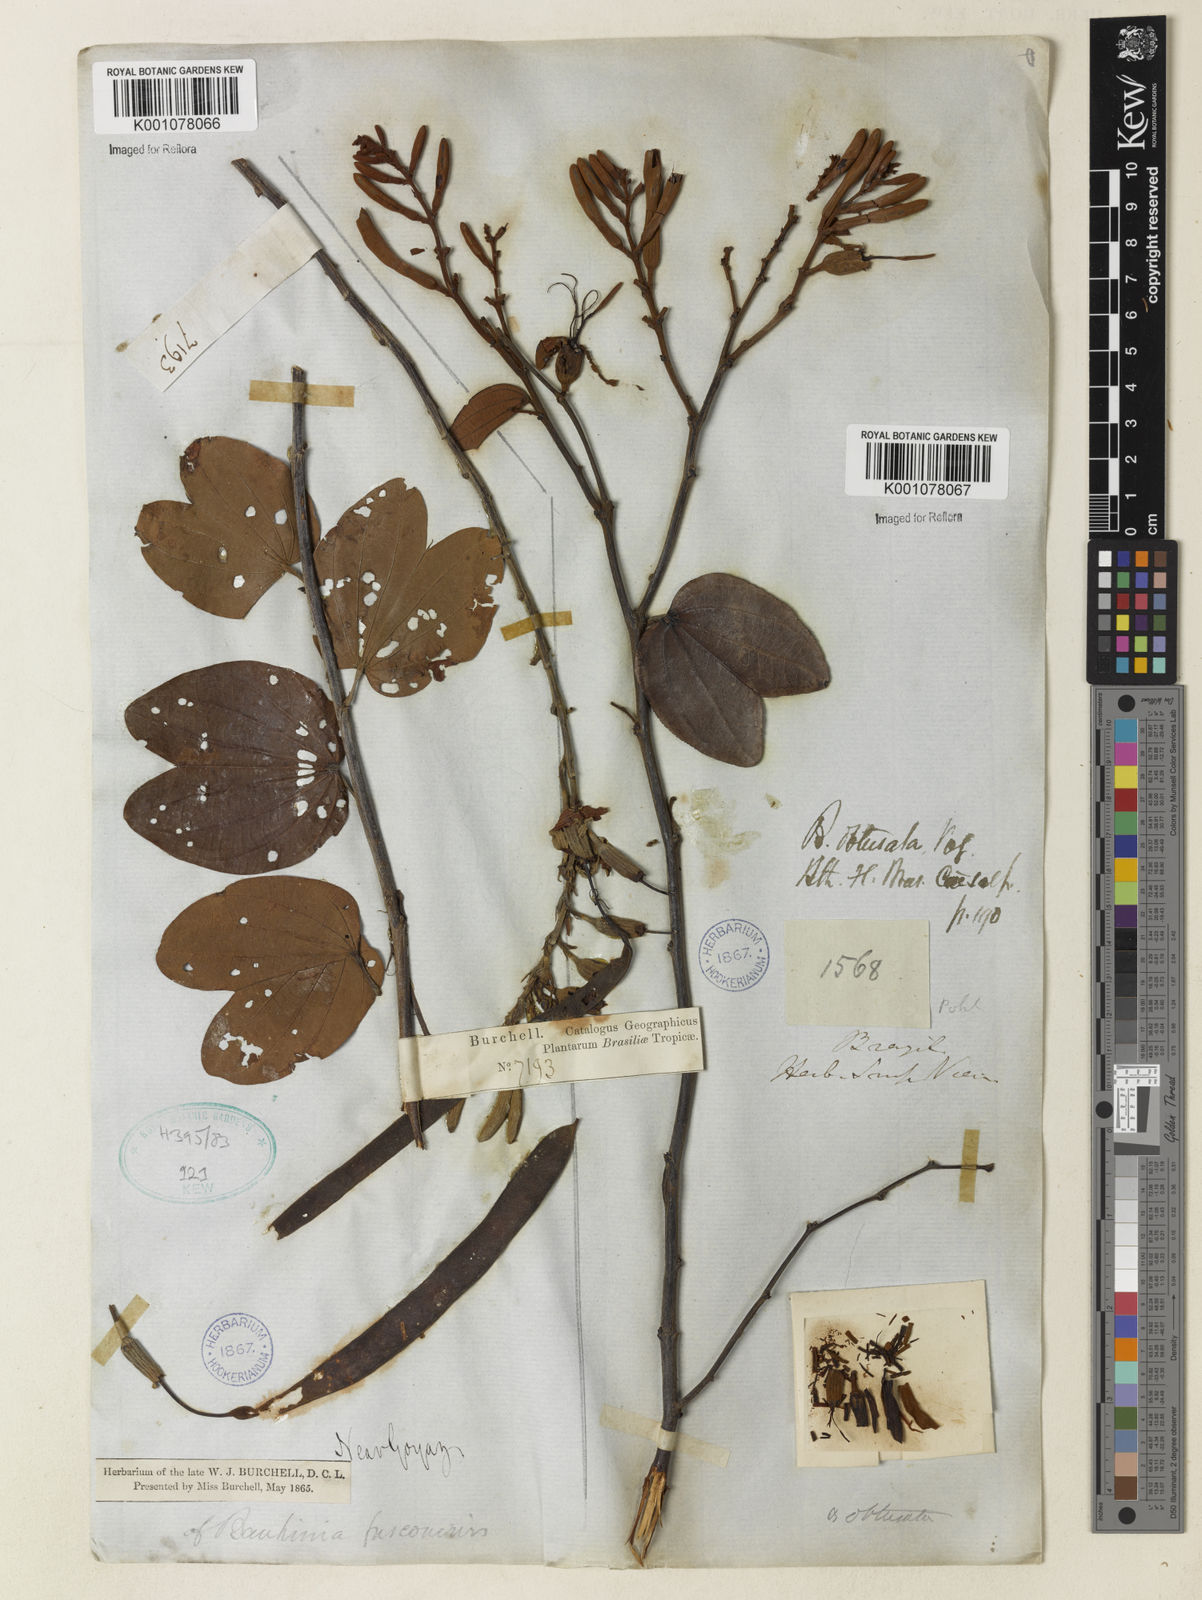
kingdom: Plantae
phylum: Tracheophyta
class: Magnoliopsida
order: Fabales
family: Fabaceae
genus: Bauhinia
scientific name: Bauhinia longifolia
